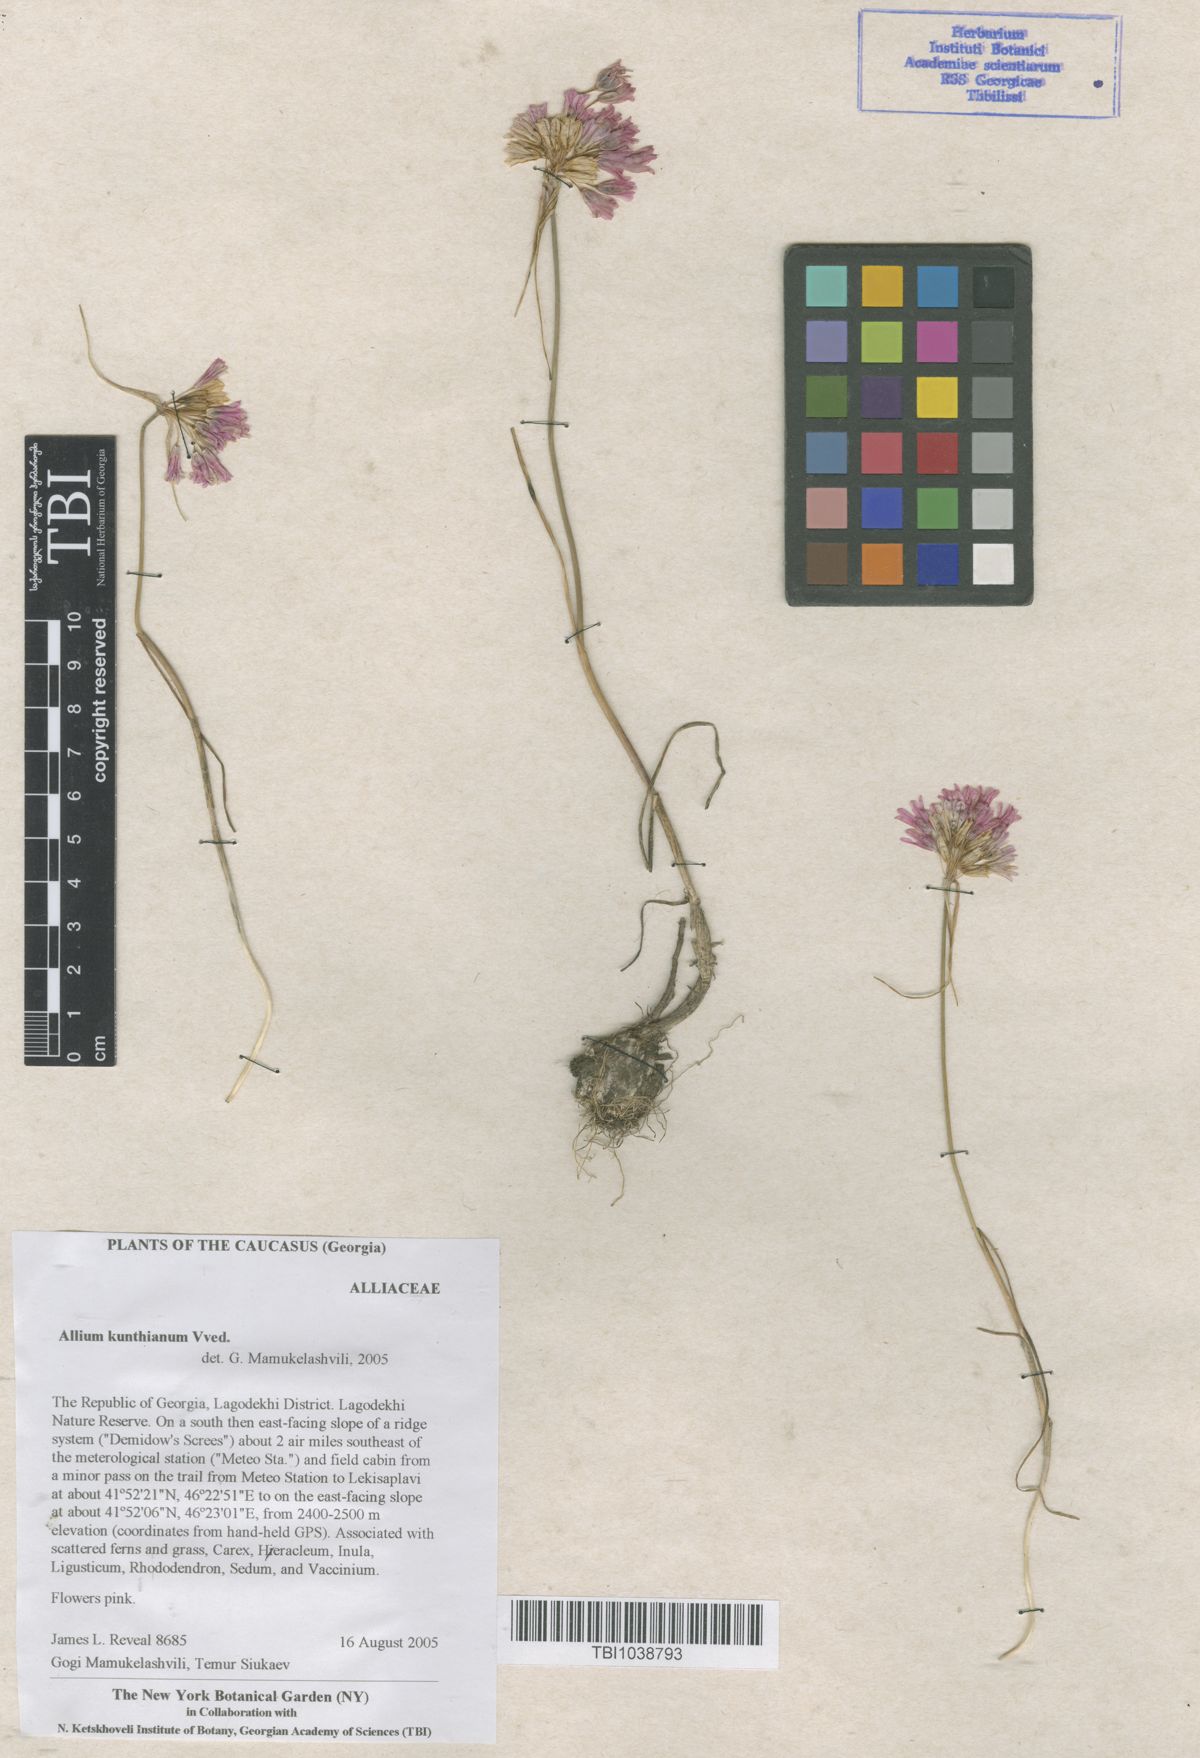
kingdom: Plantae
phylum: Tracheophyta
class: Liliopsida
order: Asparagales
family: Amaryllidaceae
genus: Allium
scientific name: Allium kunthianum
